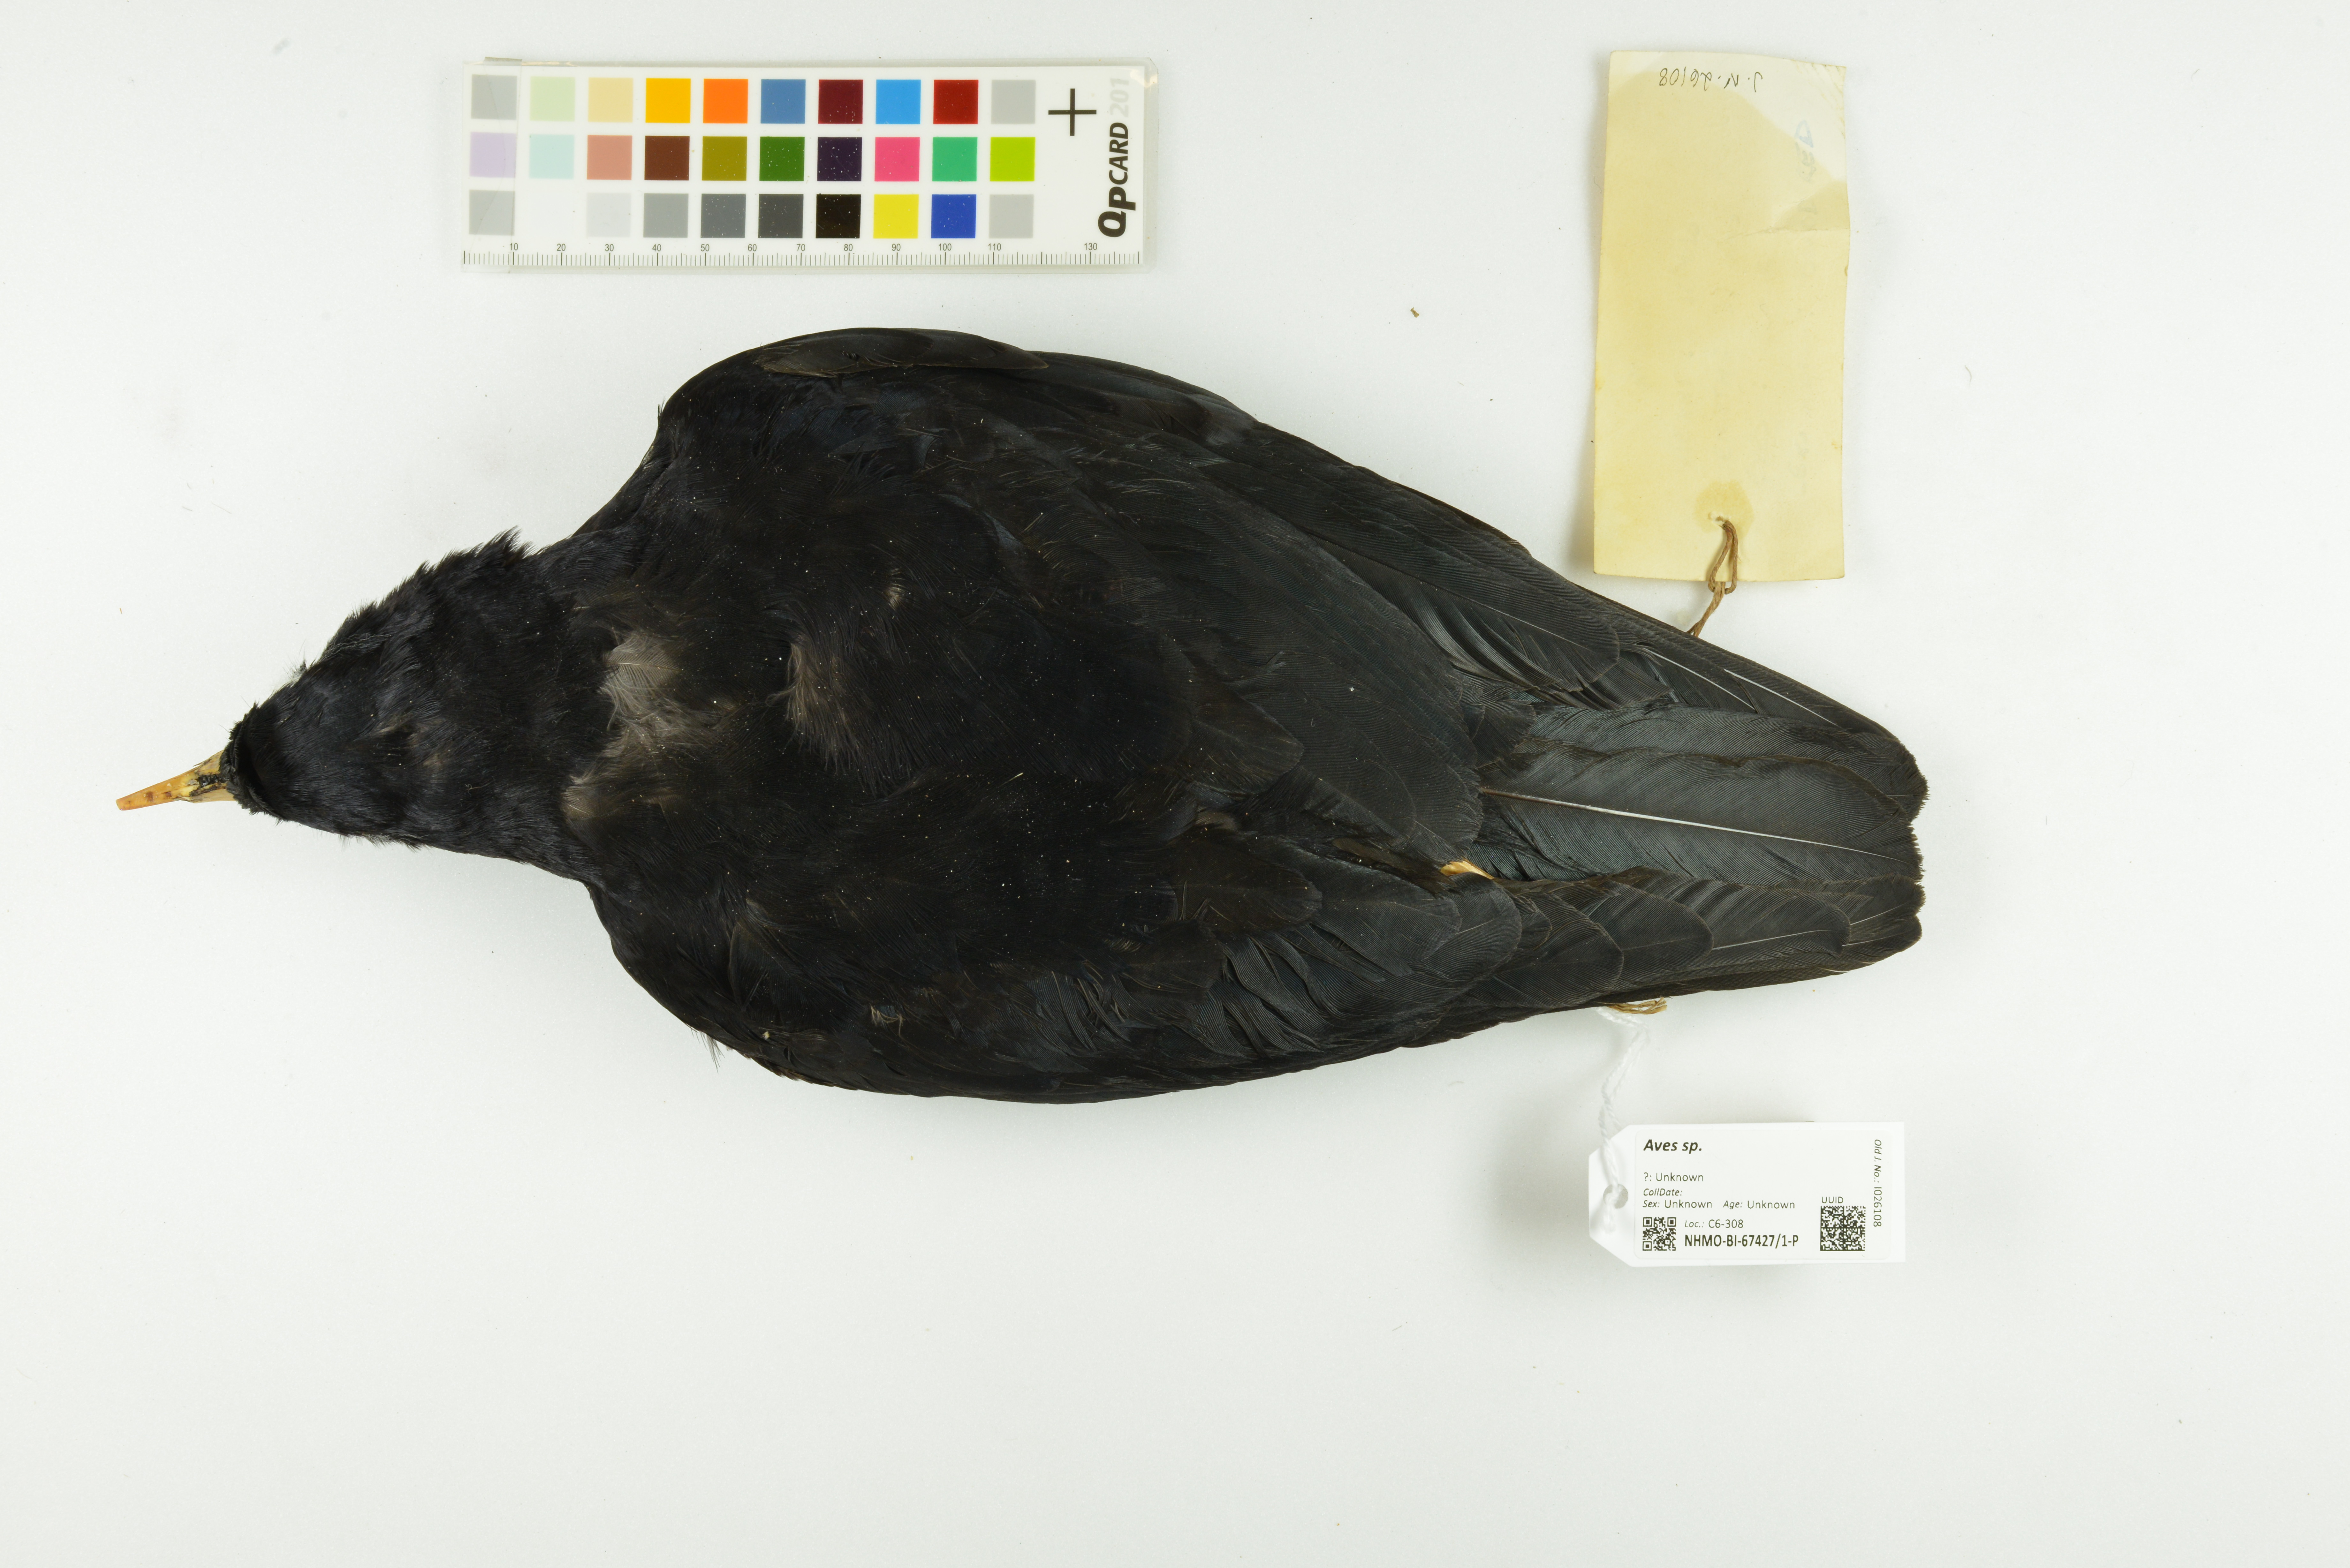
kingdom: Animalia
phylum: Chordata
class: Aves
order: Passeriformes
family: Corvidae
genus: Pyrrhocorax
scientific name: Pyrrhocorax pyrrhocorax
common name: Red-billed chough
